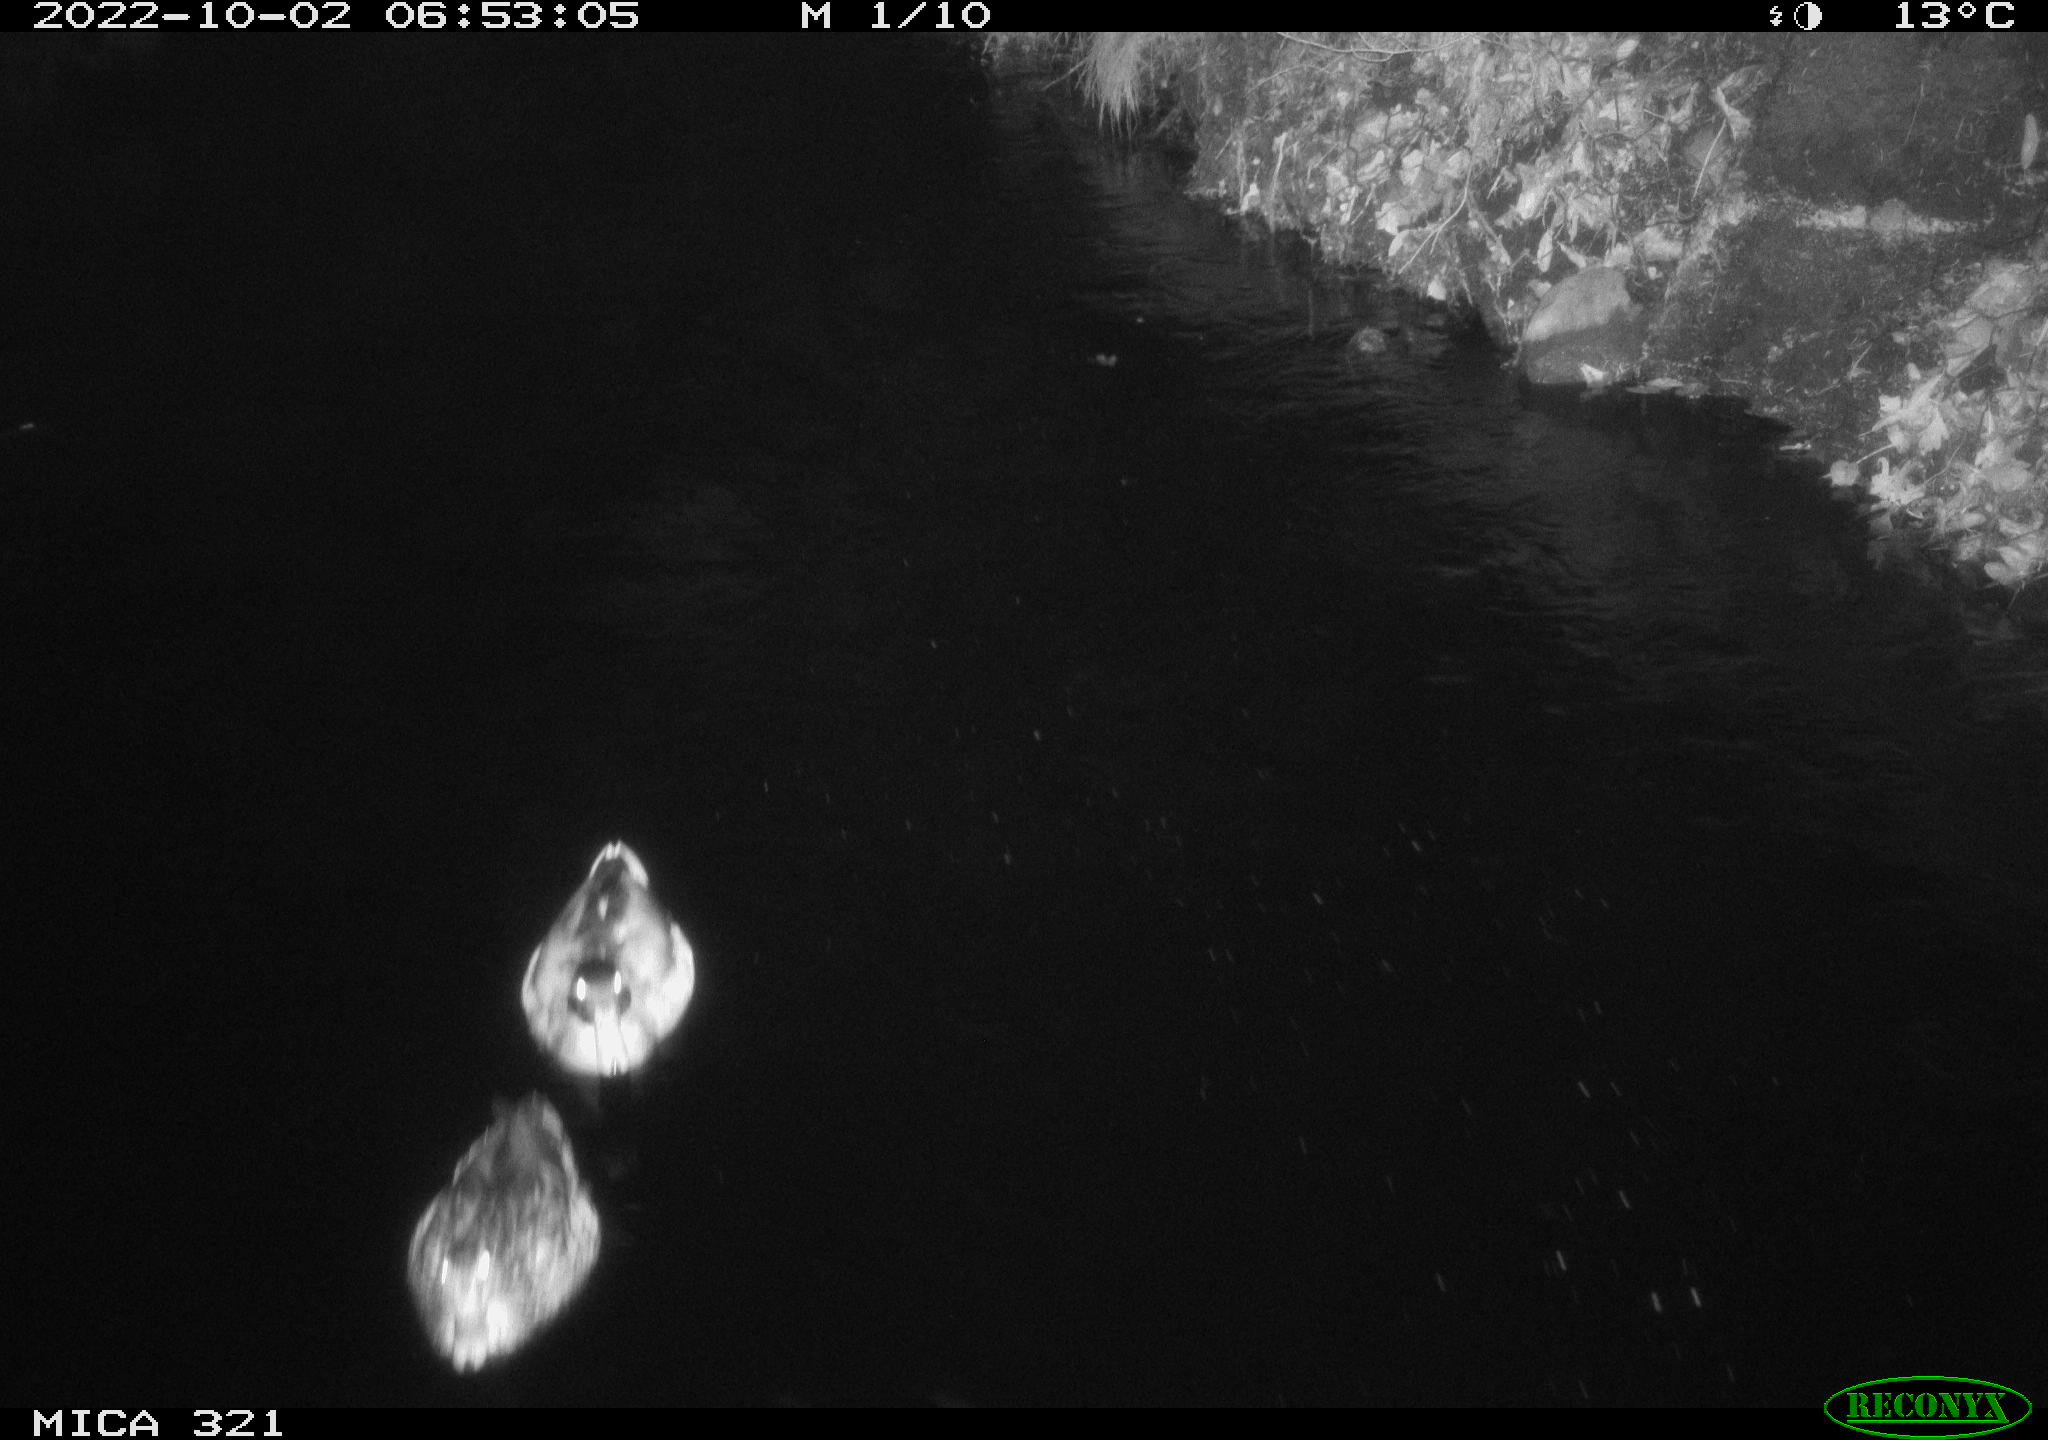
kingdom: Animalia
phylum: Chordata
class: Aves
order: Anseriformes
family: Anatidae
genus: Anas
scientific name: Anas
